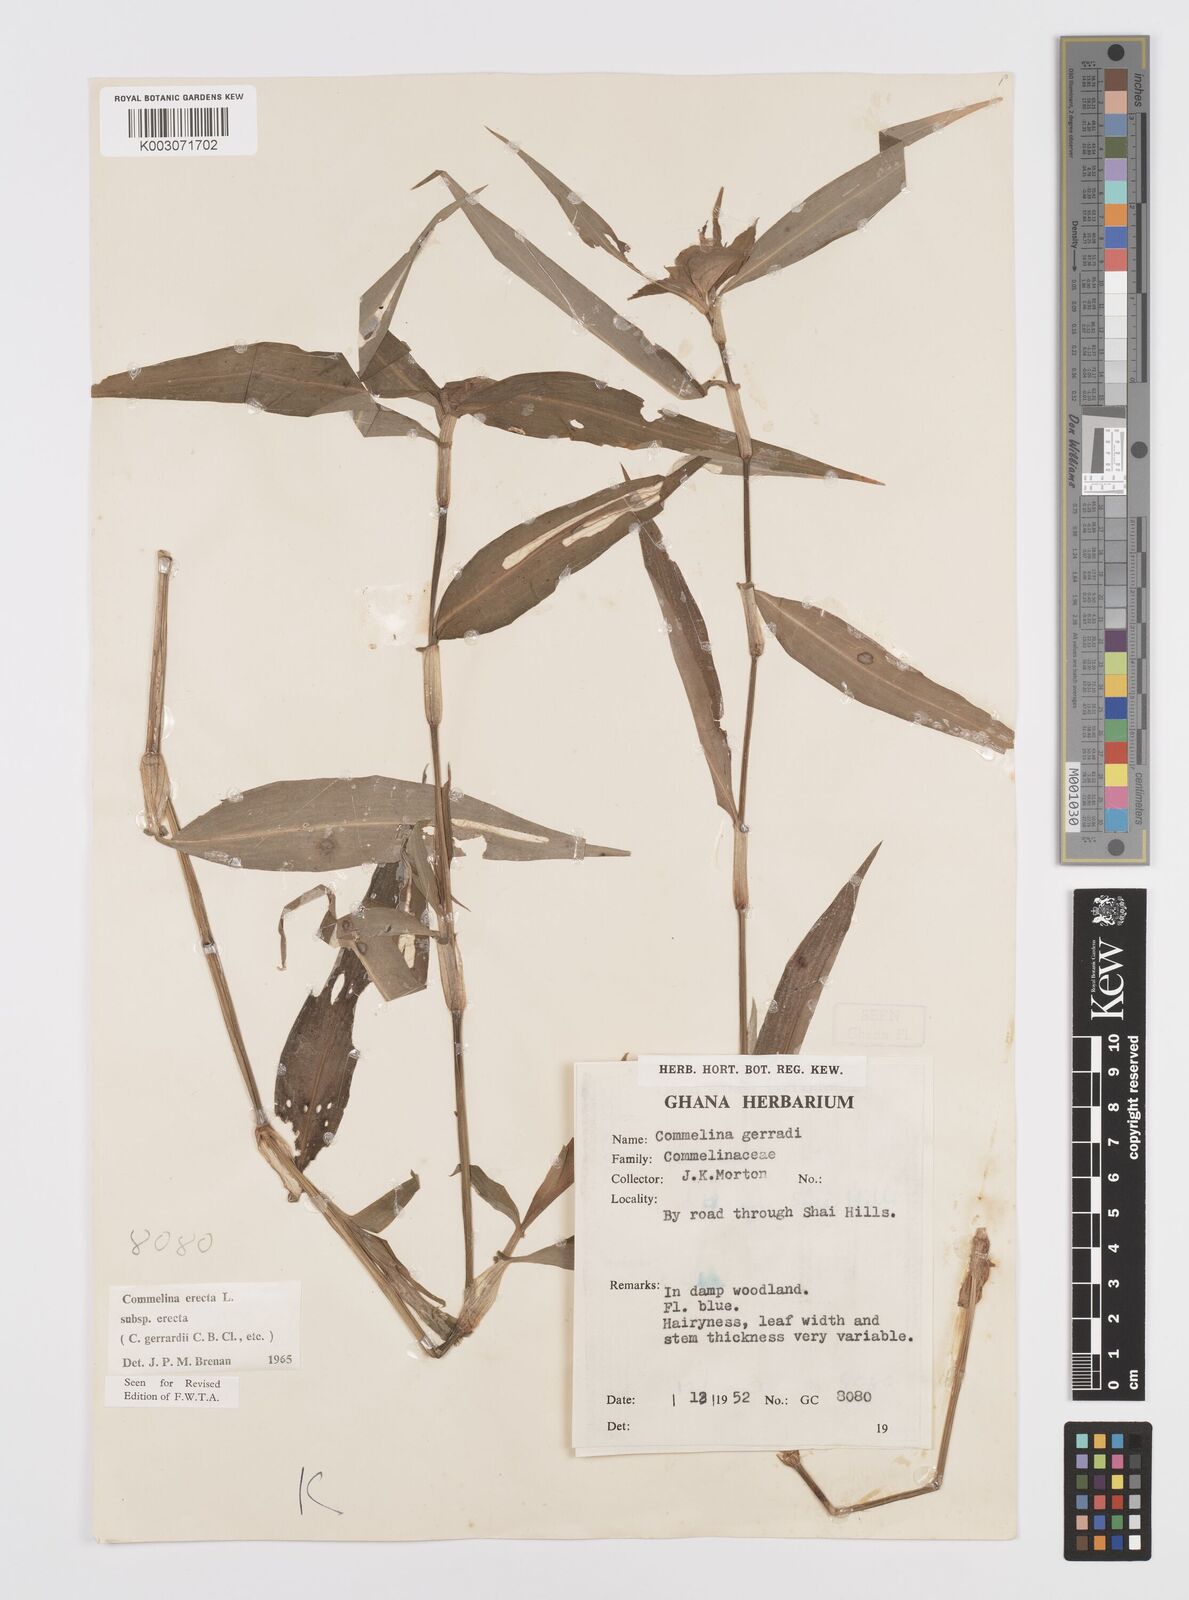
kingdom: Plantae
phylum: Tracheophyta
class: Liliopsida
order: Commelinales
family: Commelinaceae
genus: Commelina
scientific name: Commelina erecta
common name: Blousel blommetjie
